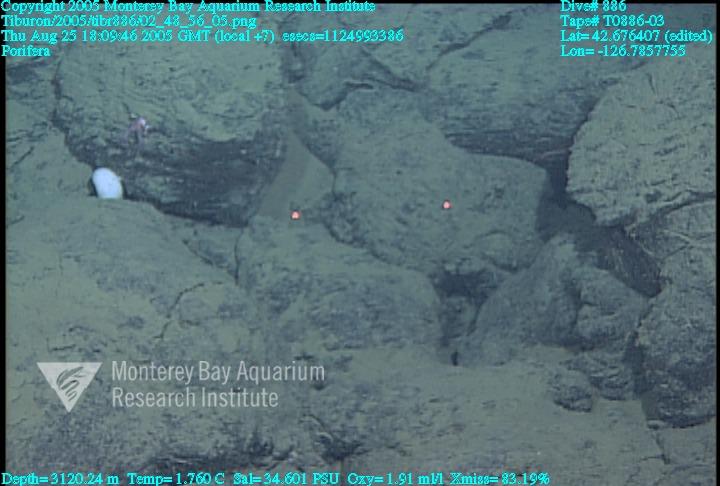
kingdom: Animalia
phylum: Porifera
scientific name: Porifera
